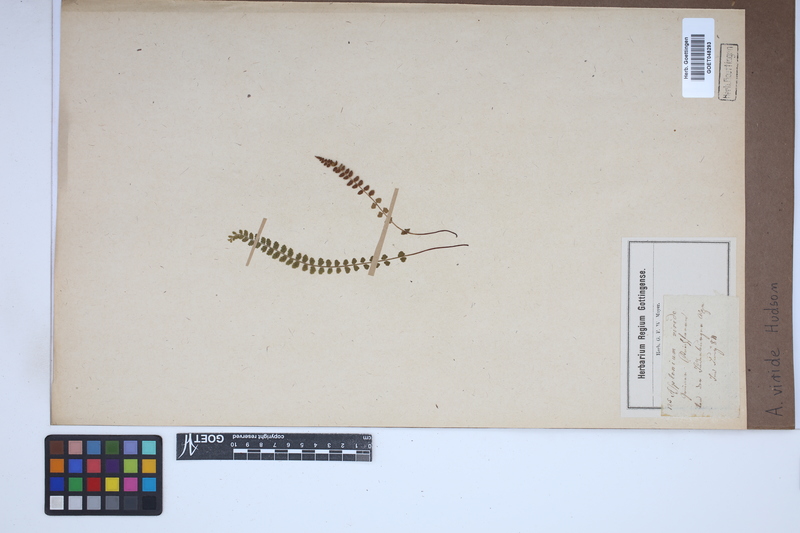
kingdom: Plantae
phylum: Tracheophyta
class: Polypodiopsida
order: Polypodiales
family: Aspleniaceae
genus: Asplenium
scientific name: Asplenium viride
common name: Green spleenwort
